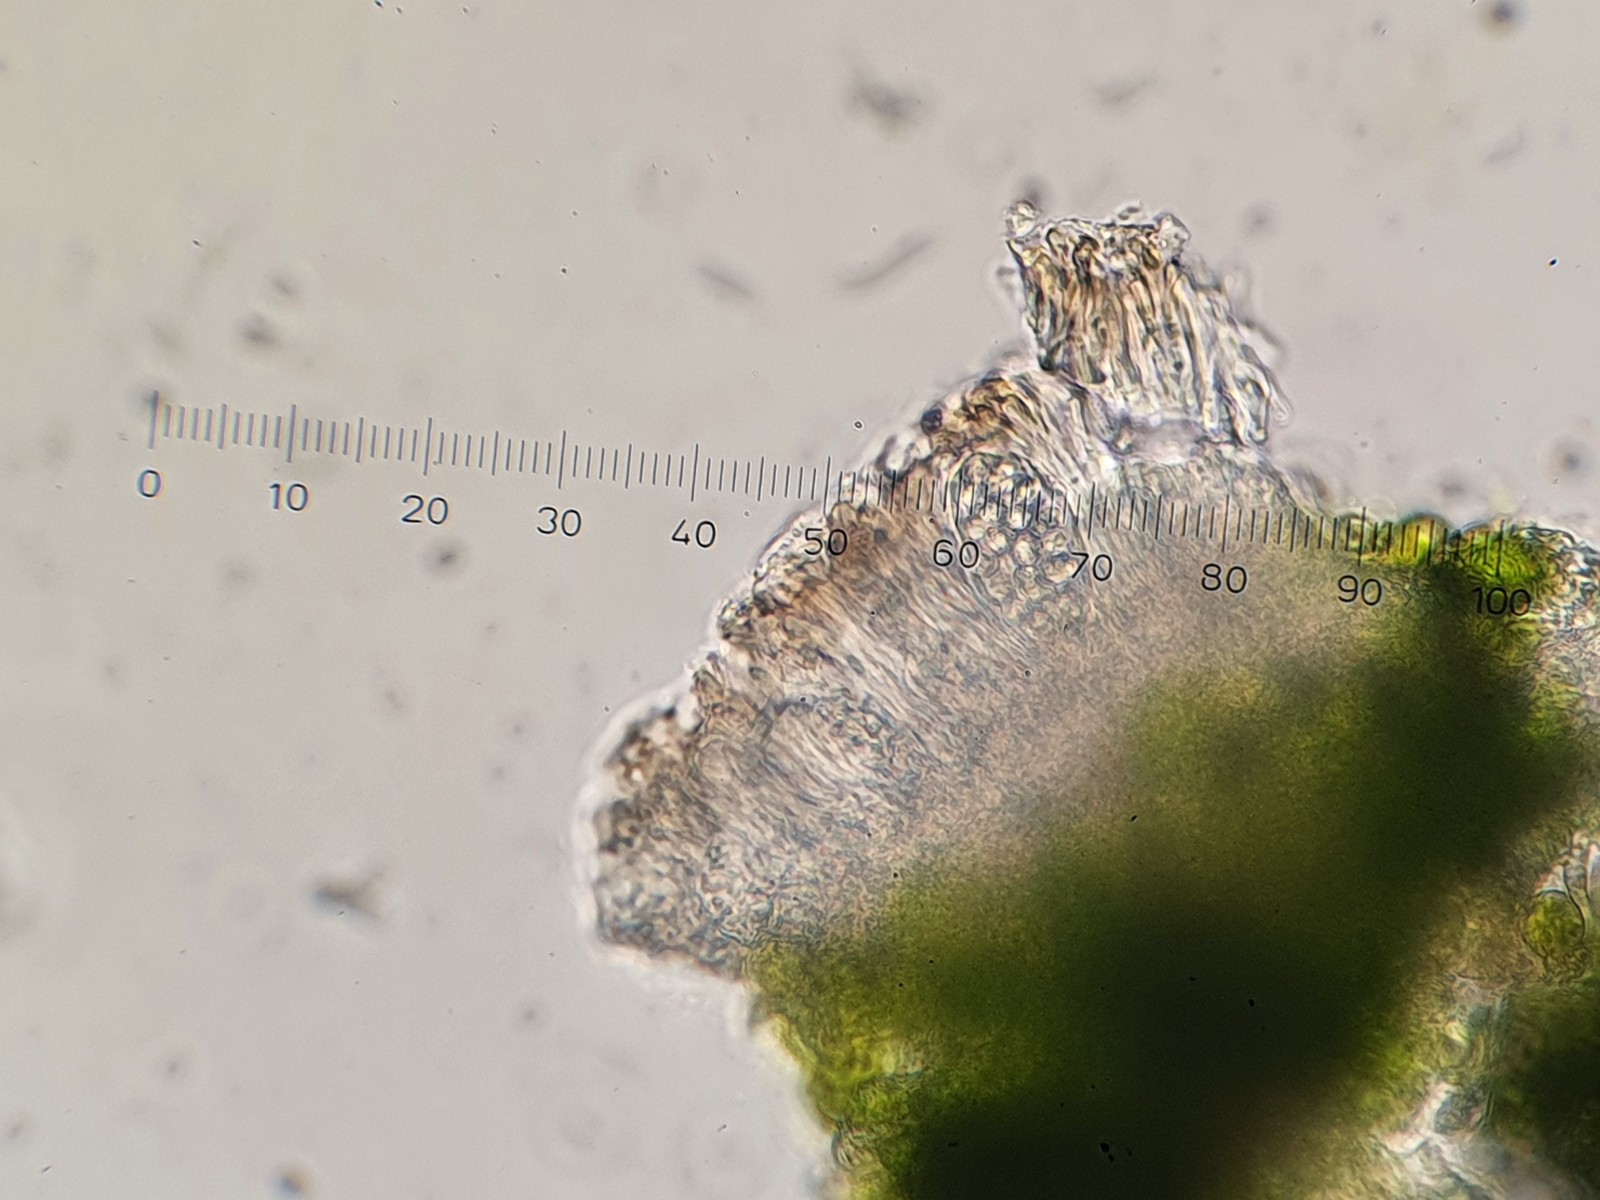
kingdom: Fungi
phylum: Ascomycota
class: Lecanoromycetes
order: Lecanorales
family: Lecanoraceae
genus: Polyozosia
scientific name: Polyozosia sambuci
